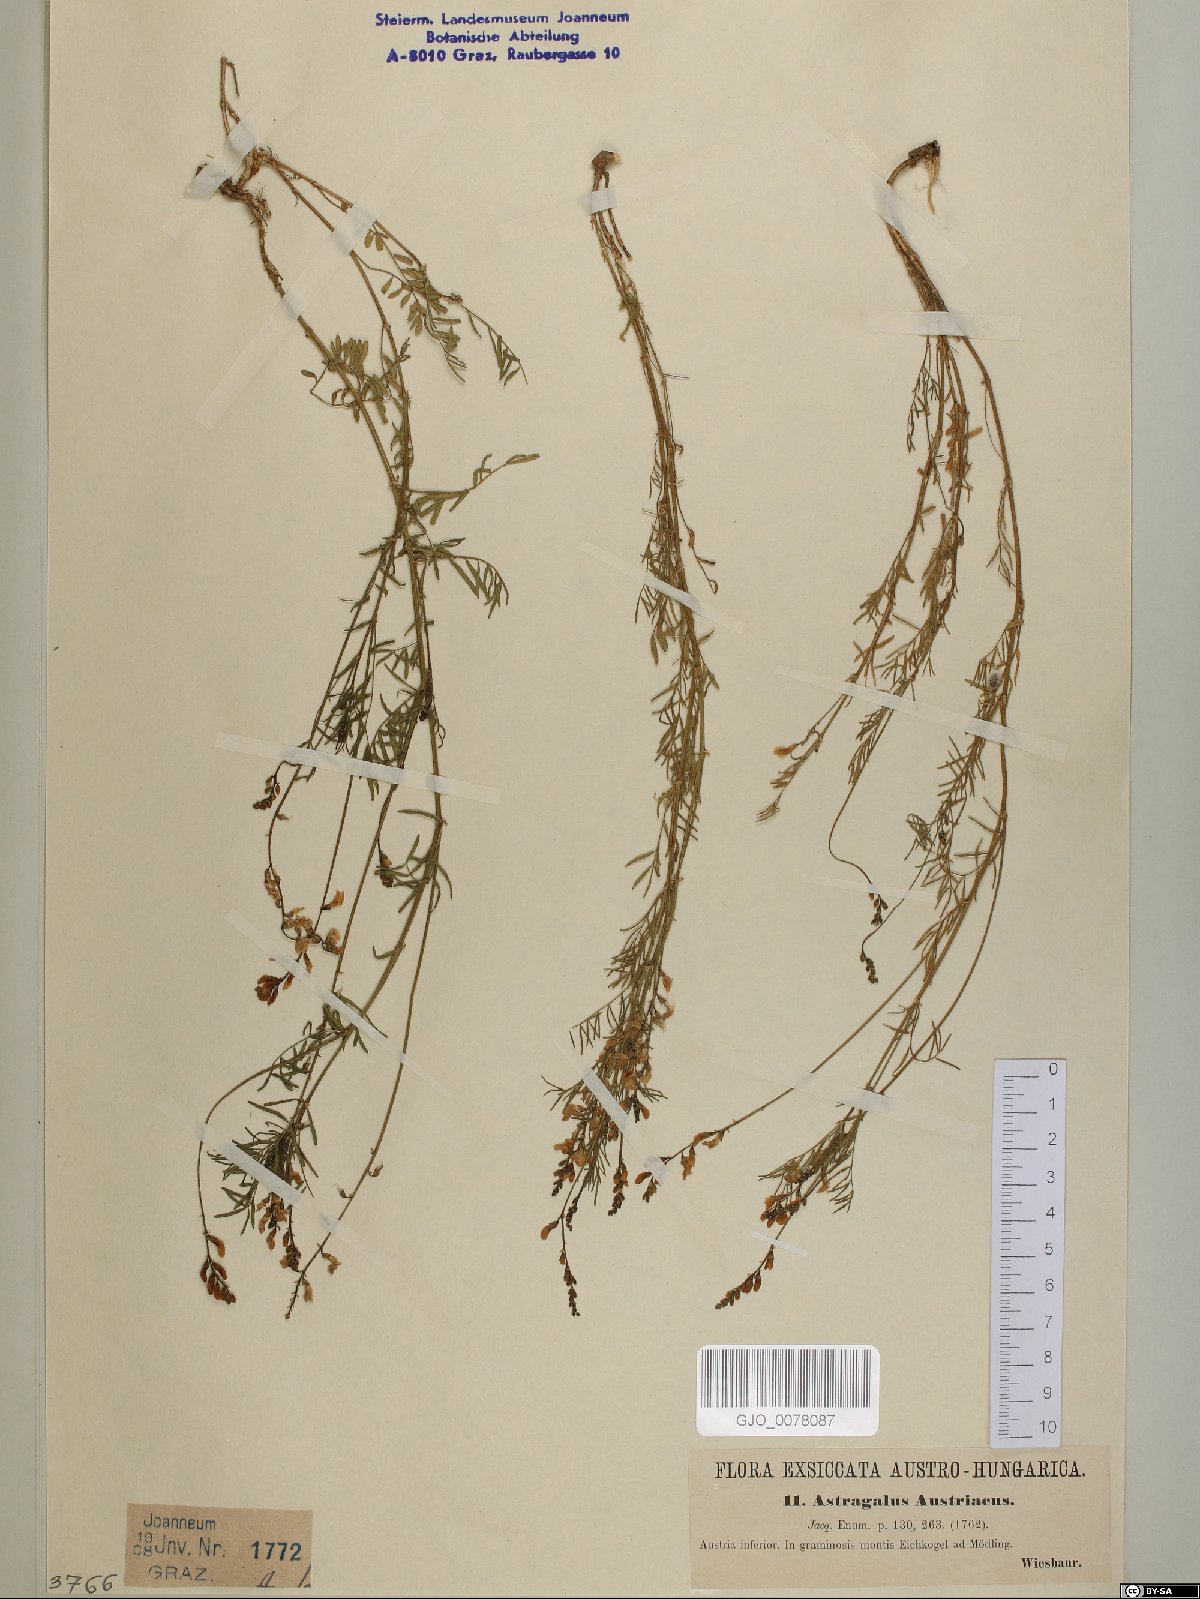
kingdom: Plantae
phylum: Tracheophyta
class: Magnoliopsida
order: Fabales
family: Fabaceae
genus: Astragalus
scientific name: Astragalus austriacus
